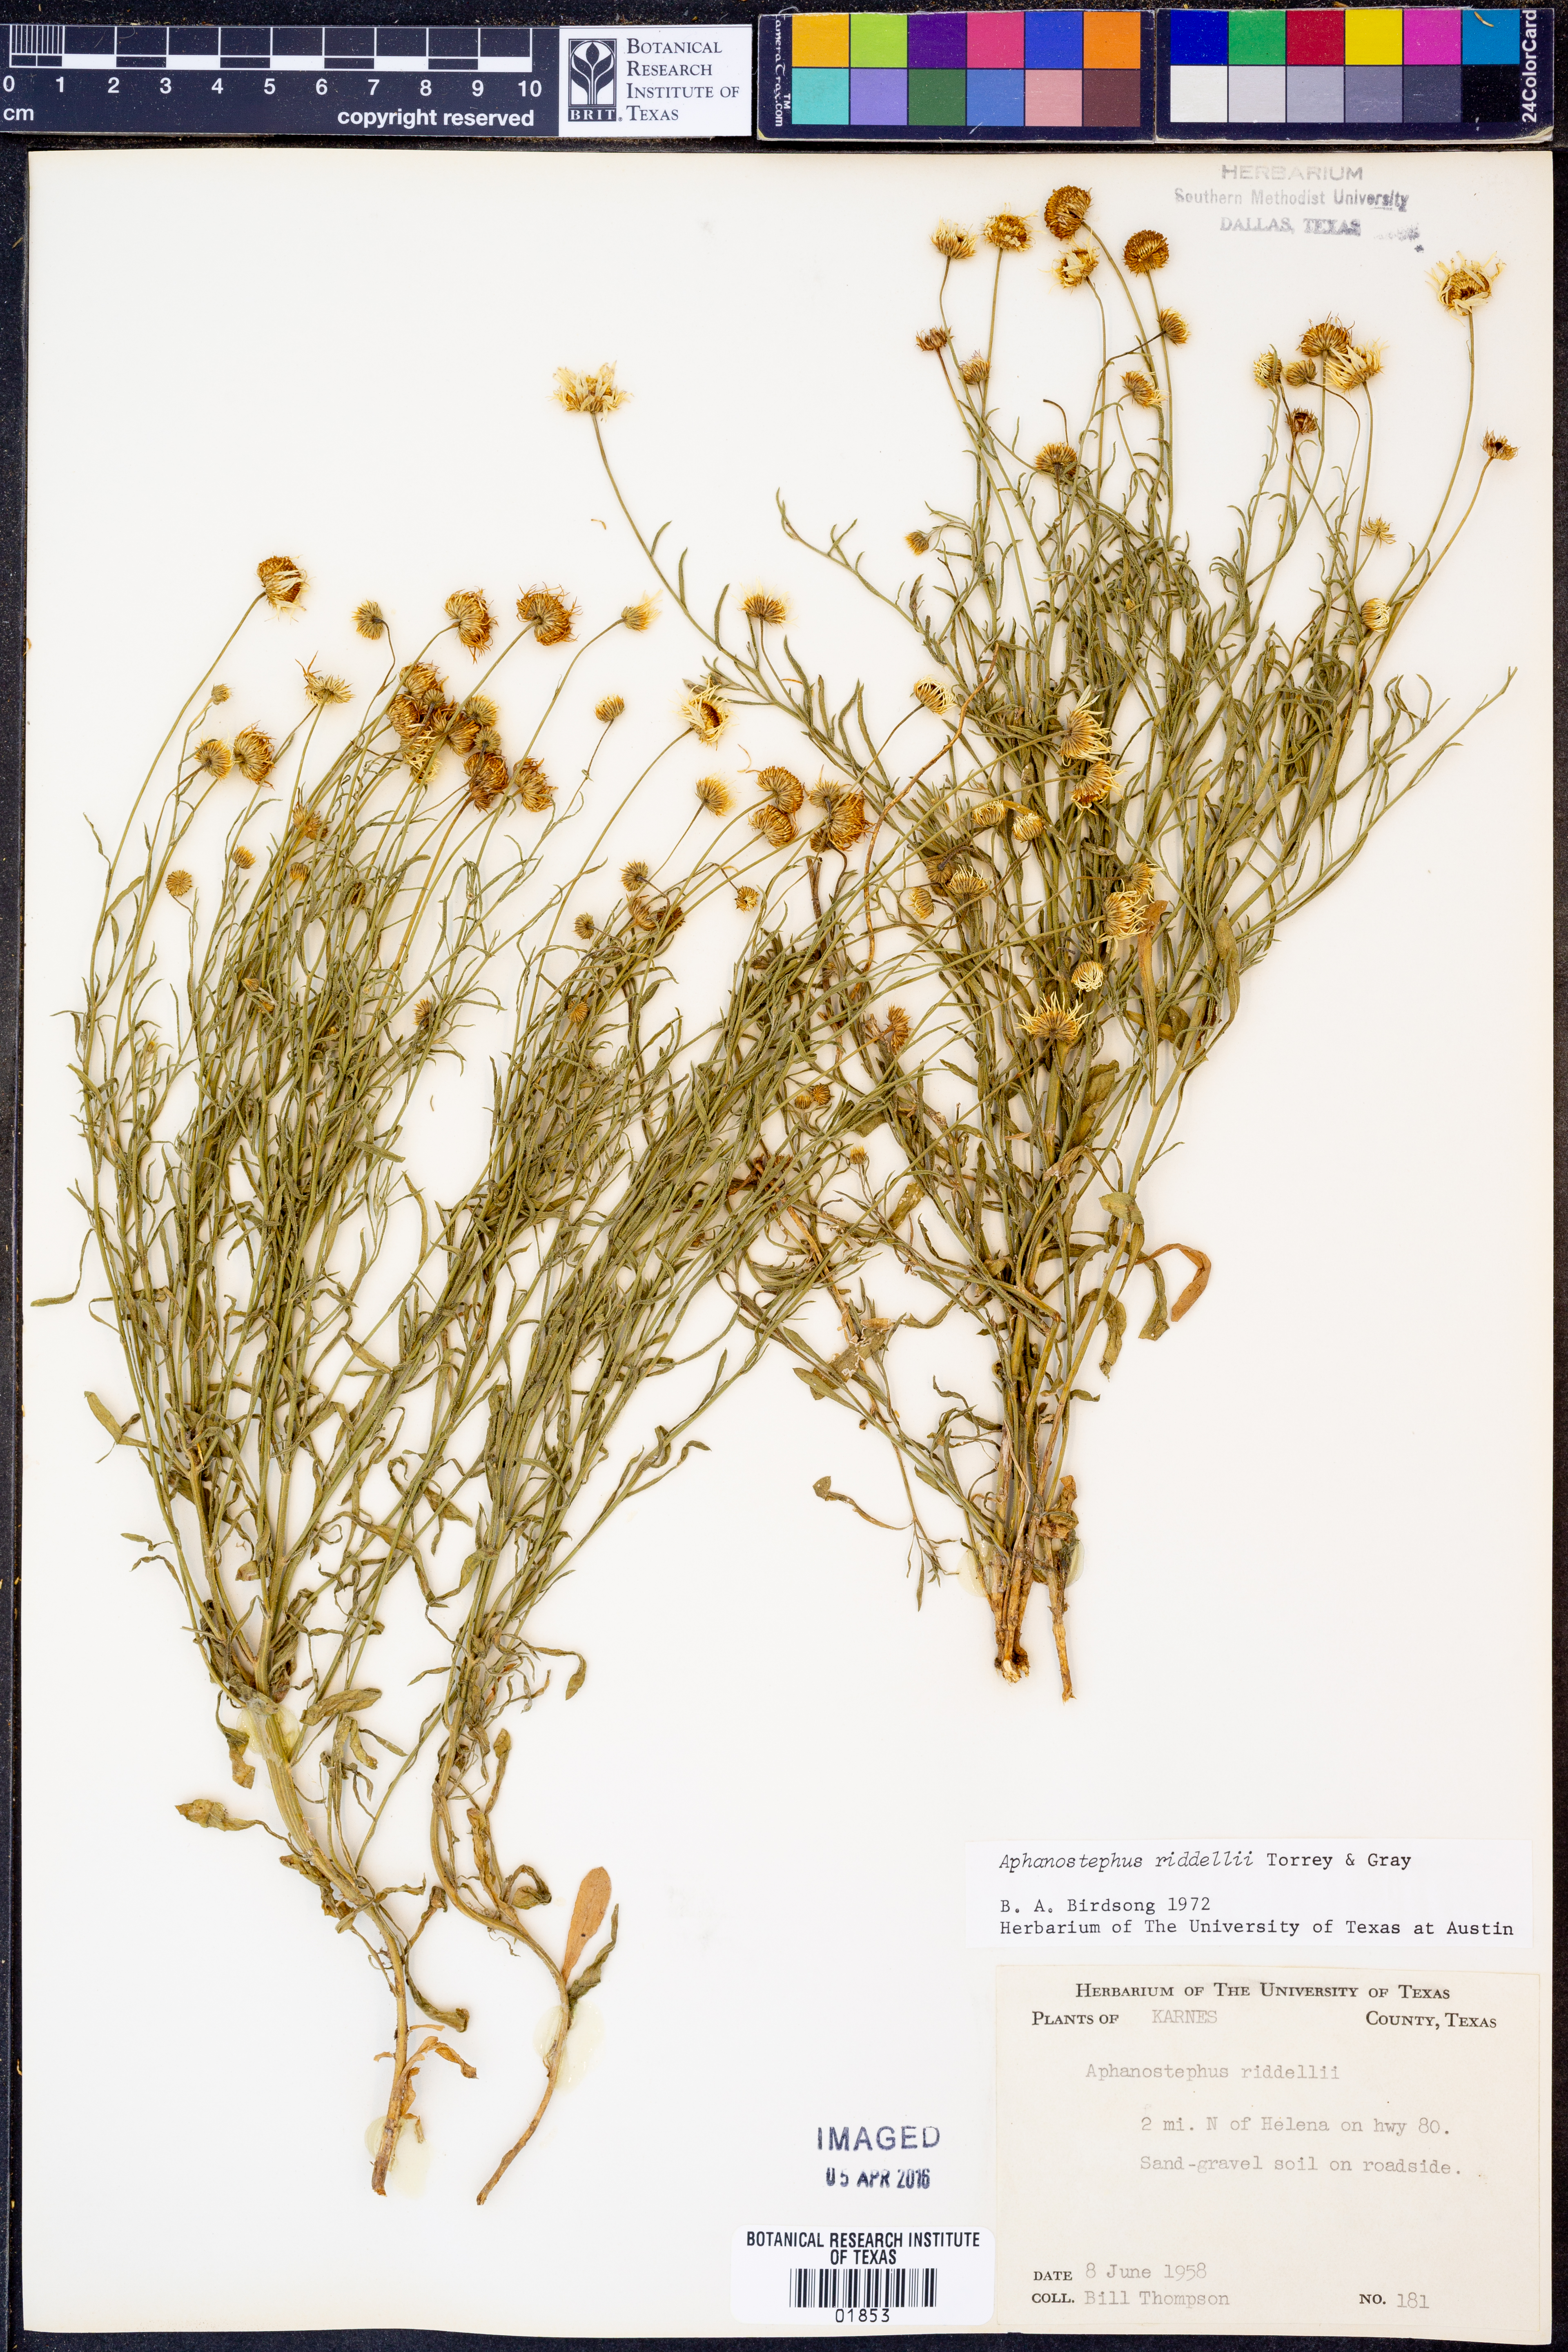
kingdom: Plantae
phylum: Tracheophyta
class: Magnoliopsida
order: Asterales
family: Asteraceae
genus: Aphanostephus
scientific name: Aphanostephus riddellii
